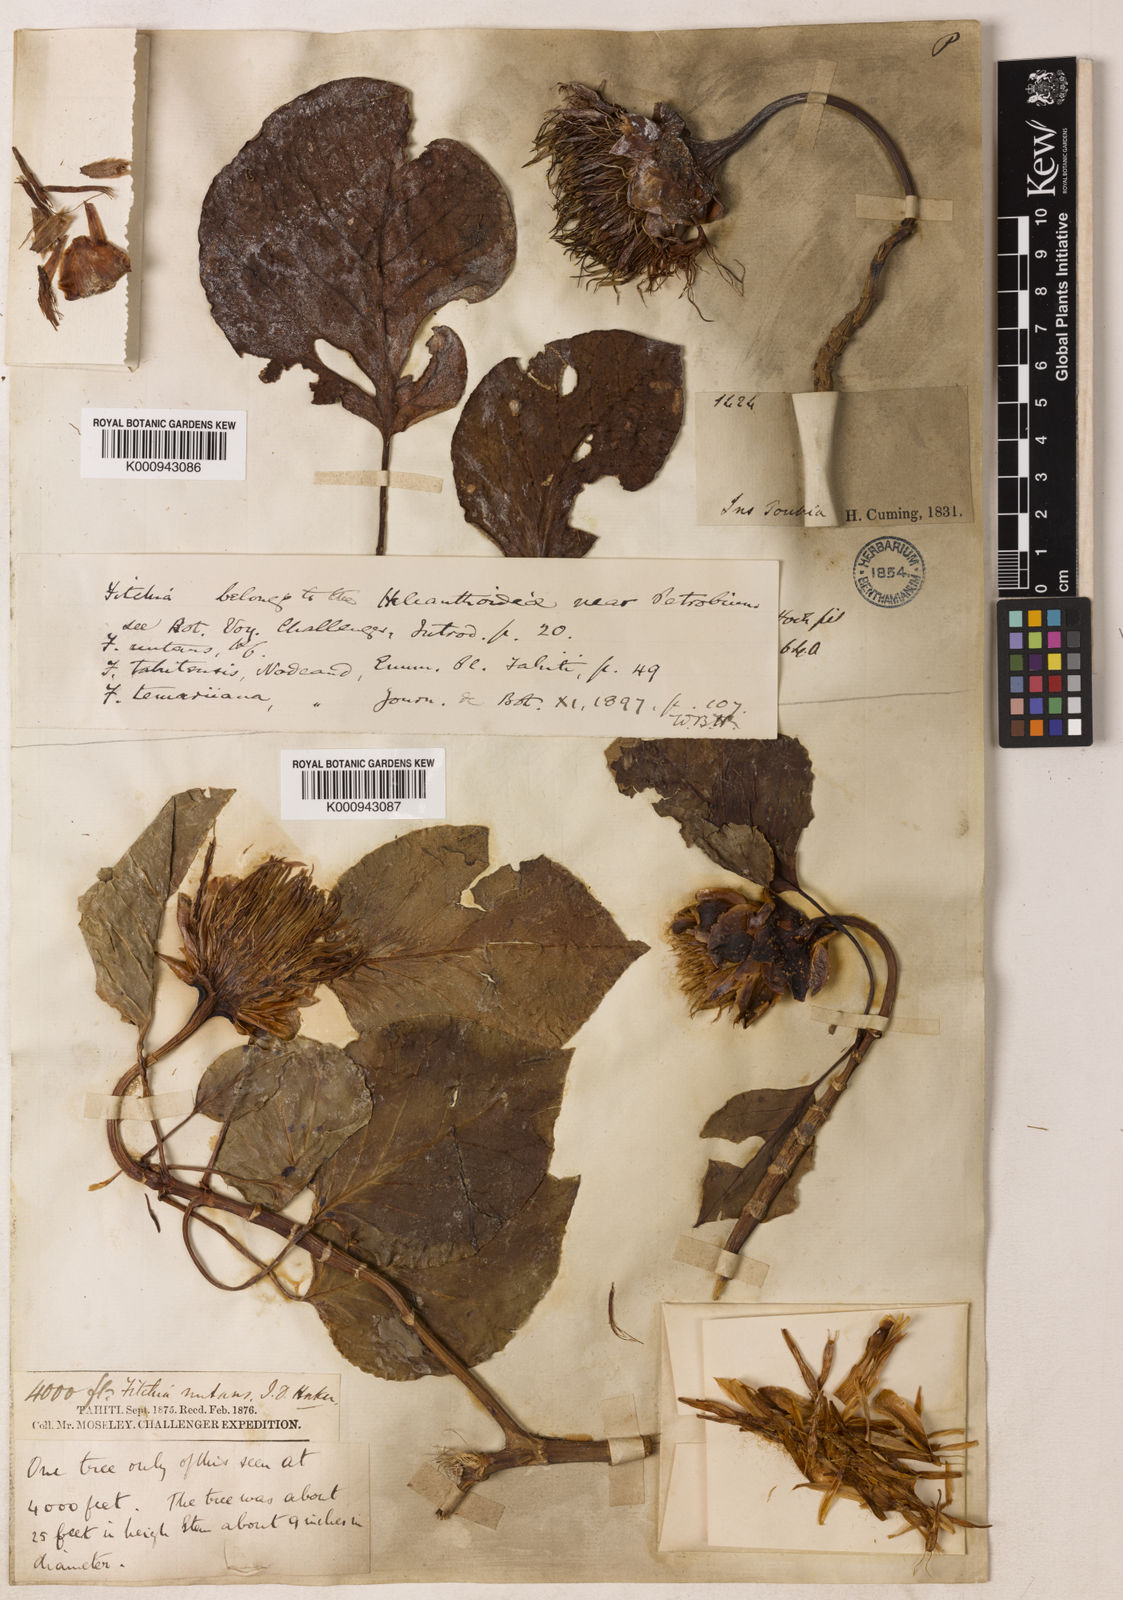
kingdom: Plantae
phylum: Tracheophyta
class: Magnoliopsida
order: Asterales
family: Asteraceae
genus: Fitchia
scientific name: Fitchia nutans
